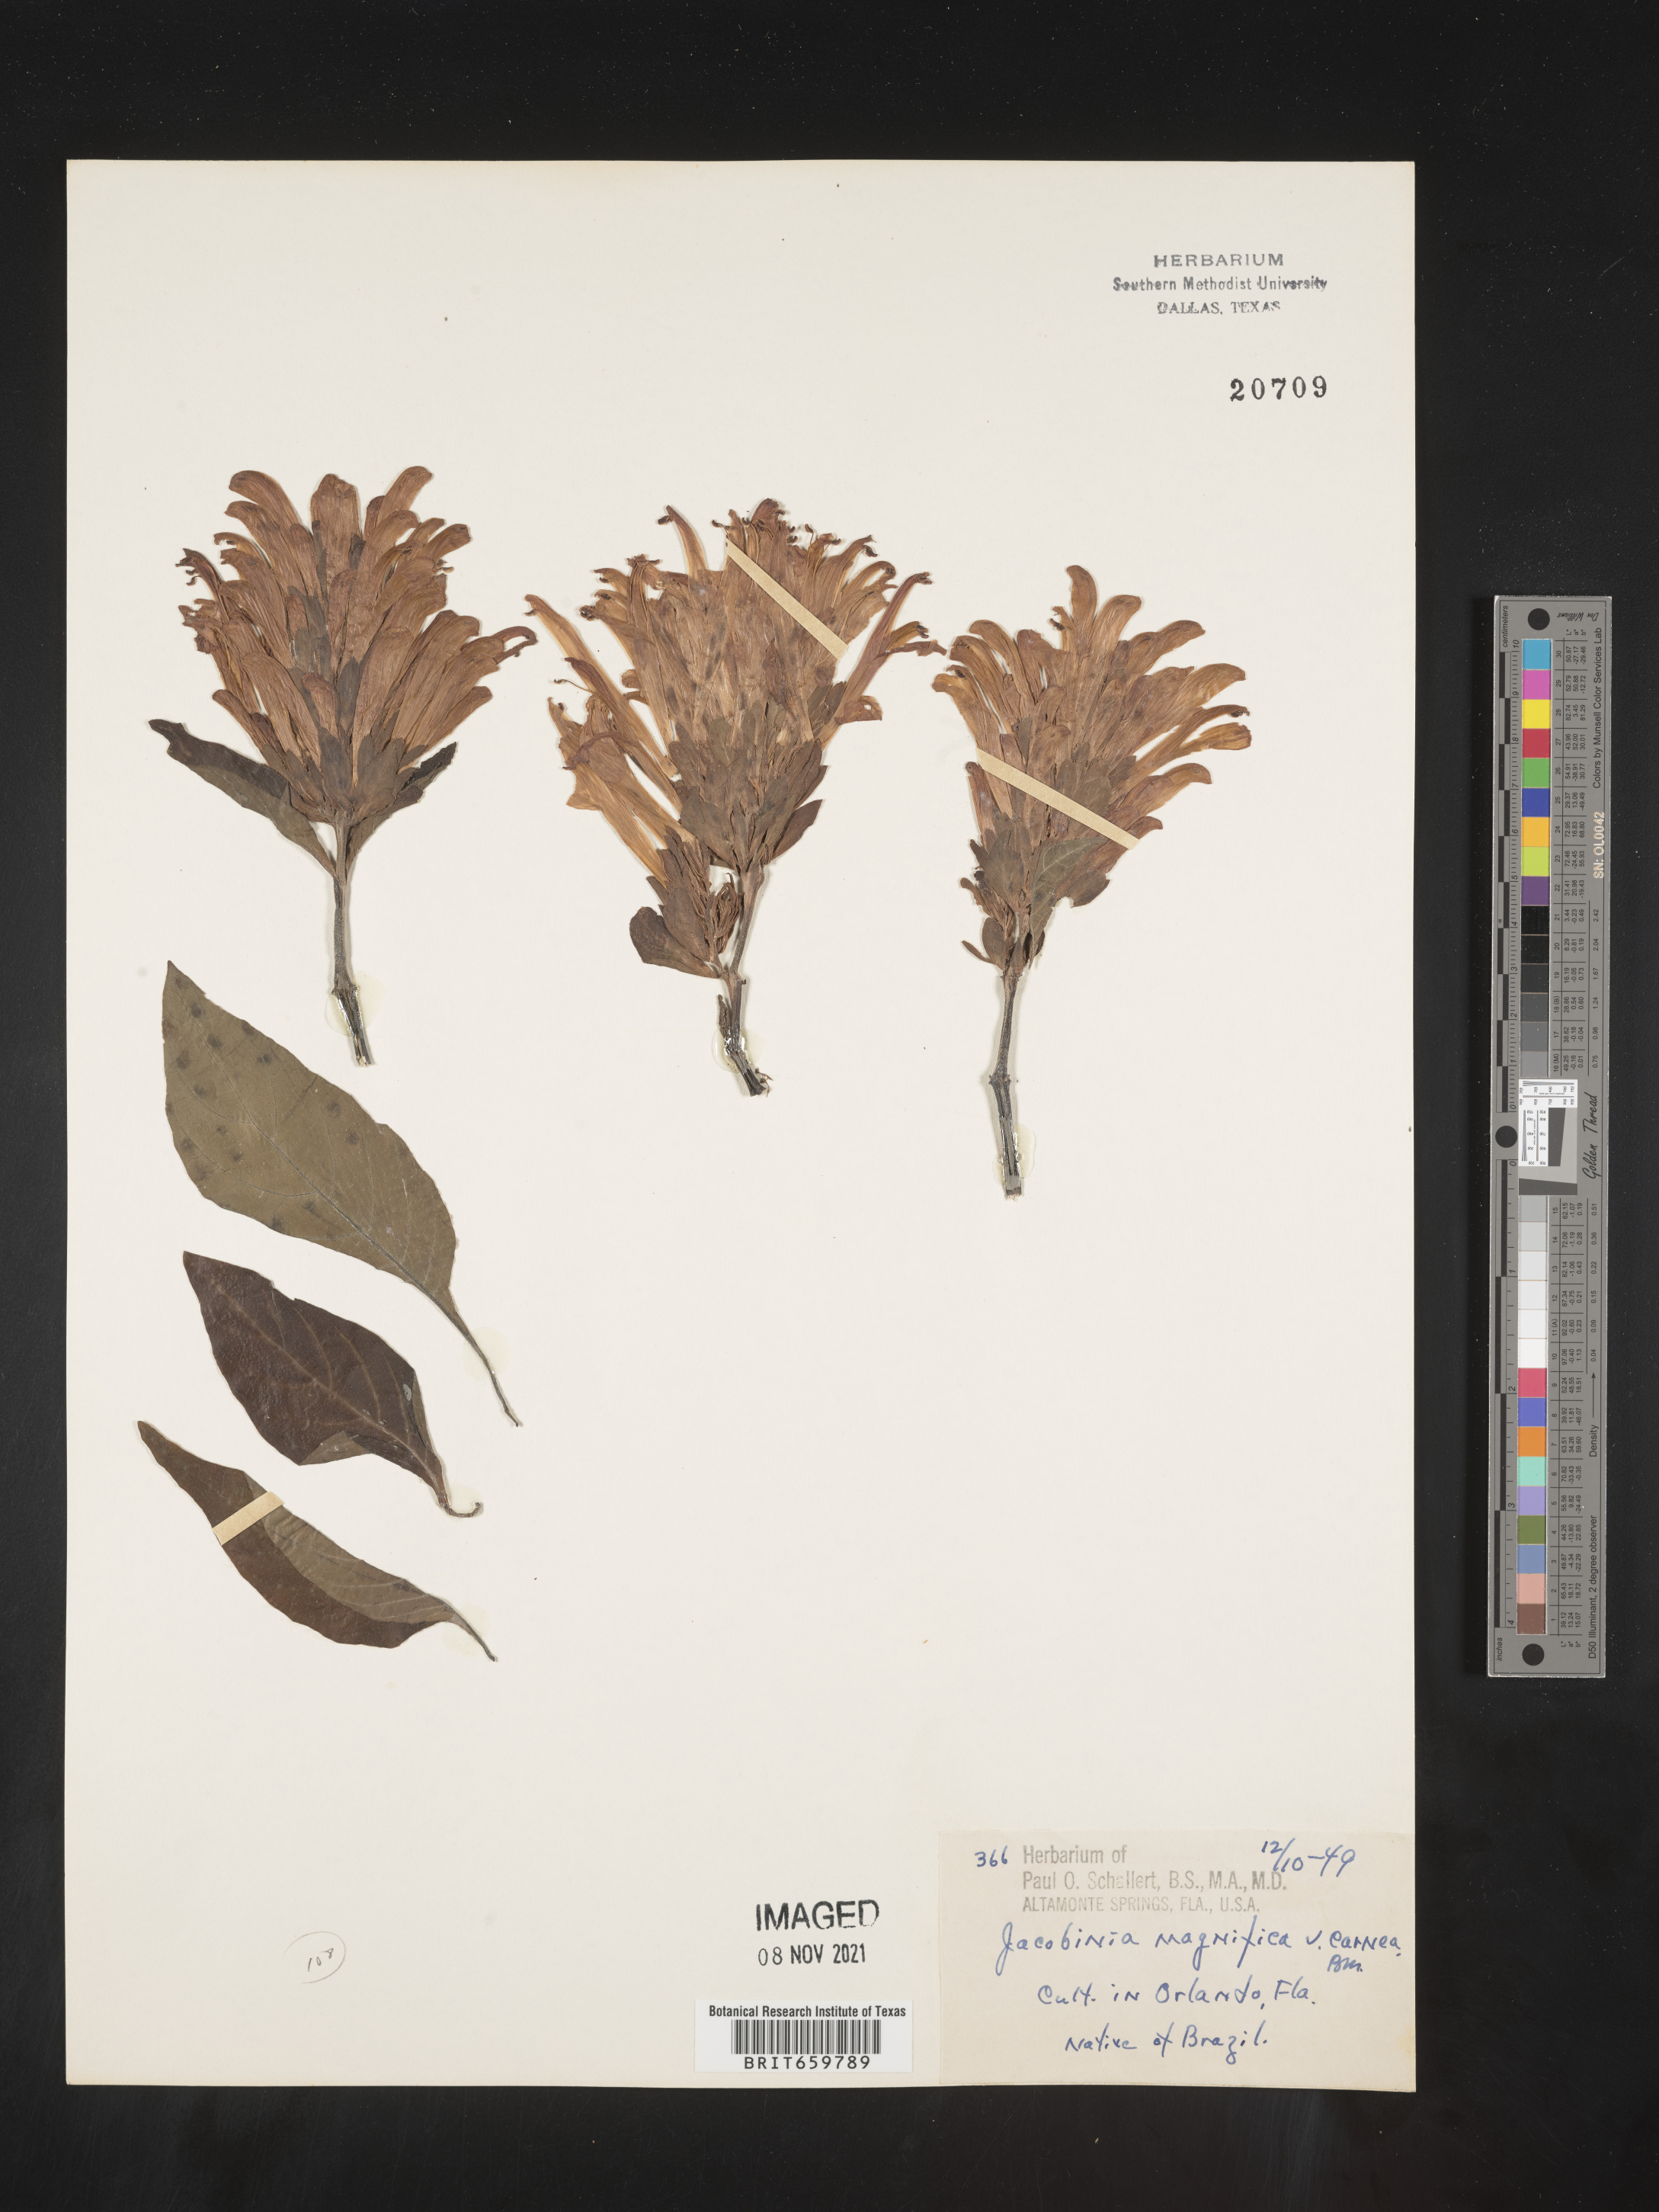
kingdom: Plantae
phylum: Tracheophyta
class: Magnoliopsida
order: Lamiales
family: Acanthaceae
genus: Justicia
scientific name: Justicia
